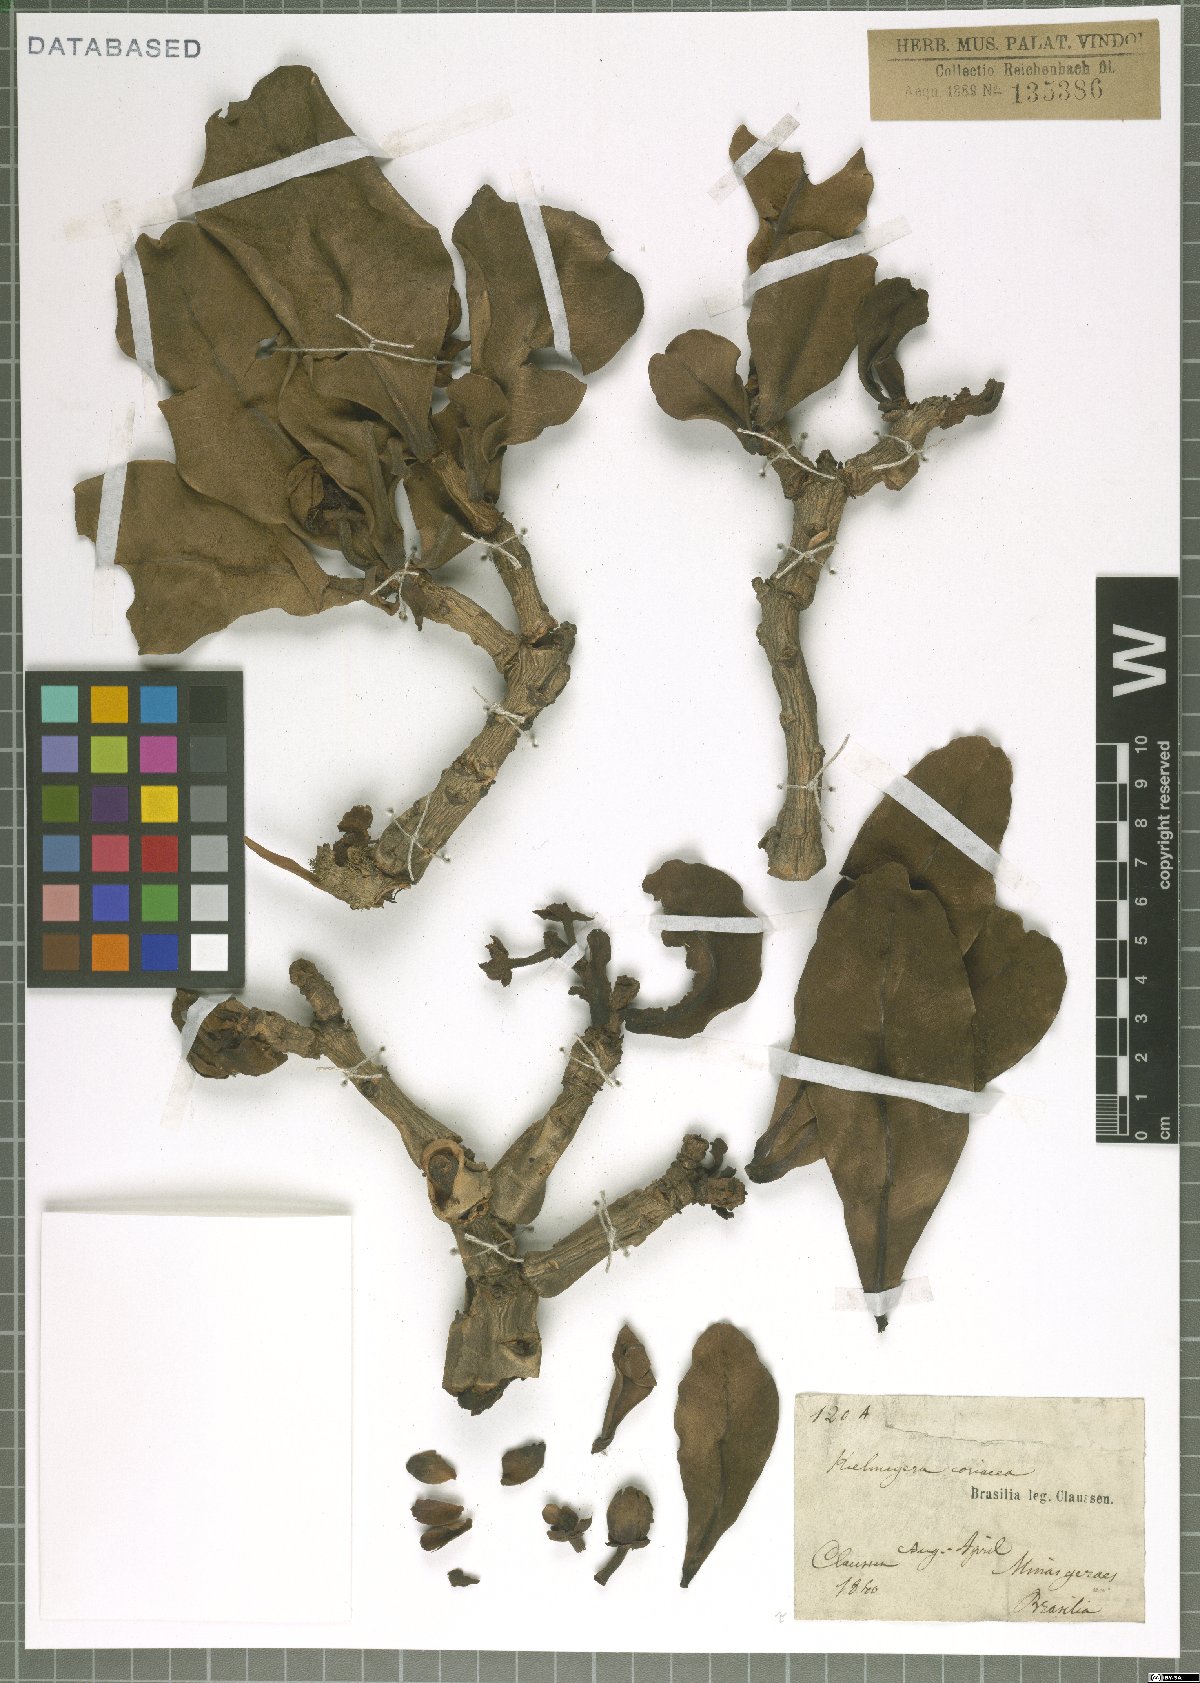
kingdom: Plantae
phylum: Tracheophyta
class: Magnoliopsida
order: Malpighiales
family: Calophyllaceae
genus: Kielmeyera
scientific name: Kielmeyera coriacea
